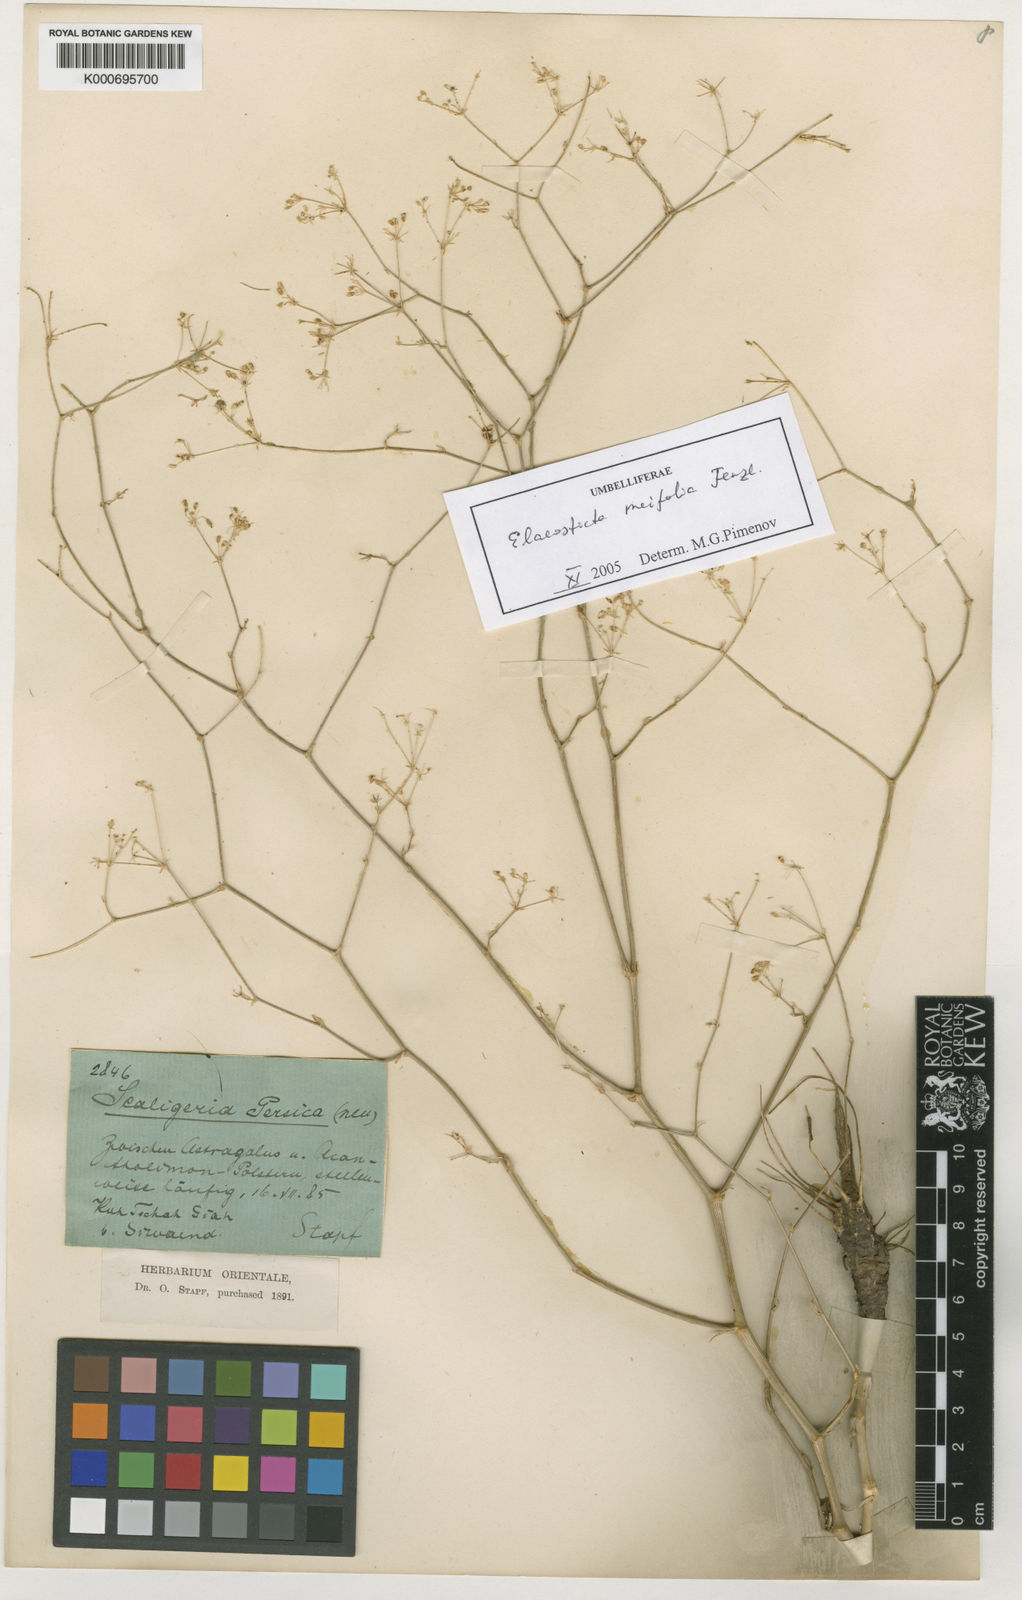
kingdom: Plantae
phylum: Tracheophyta
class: Magnoliopsida
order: Apiales
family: Apiaceae
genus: Scaligeria
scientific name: Scaligeria
